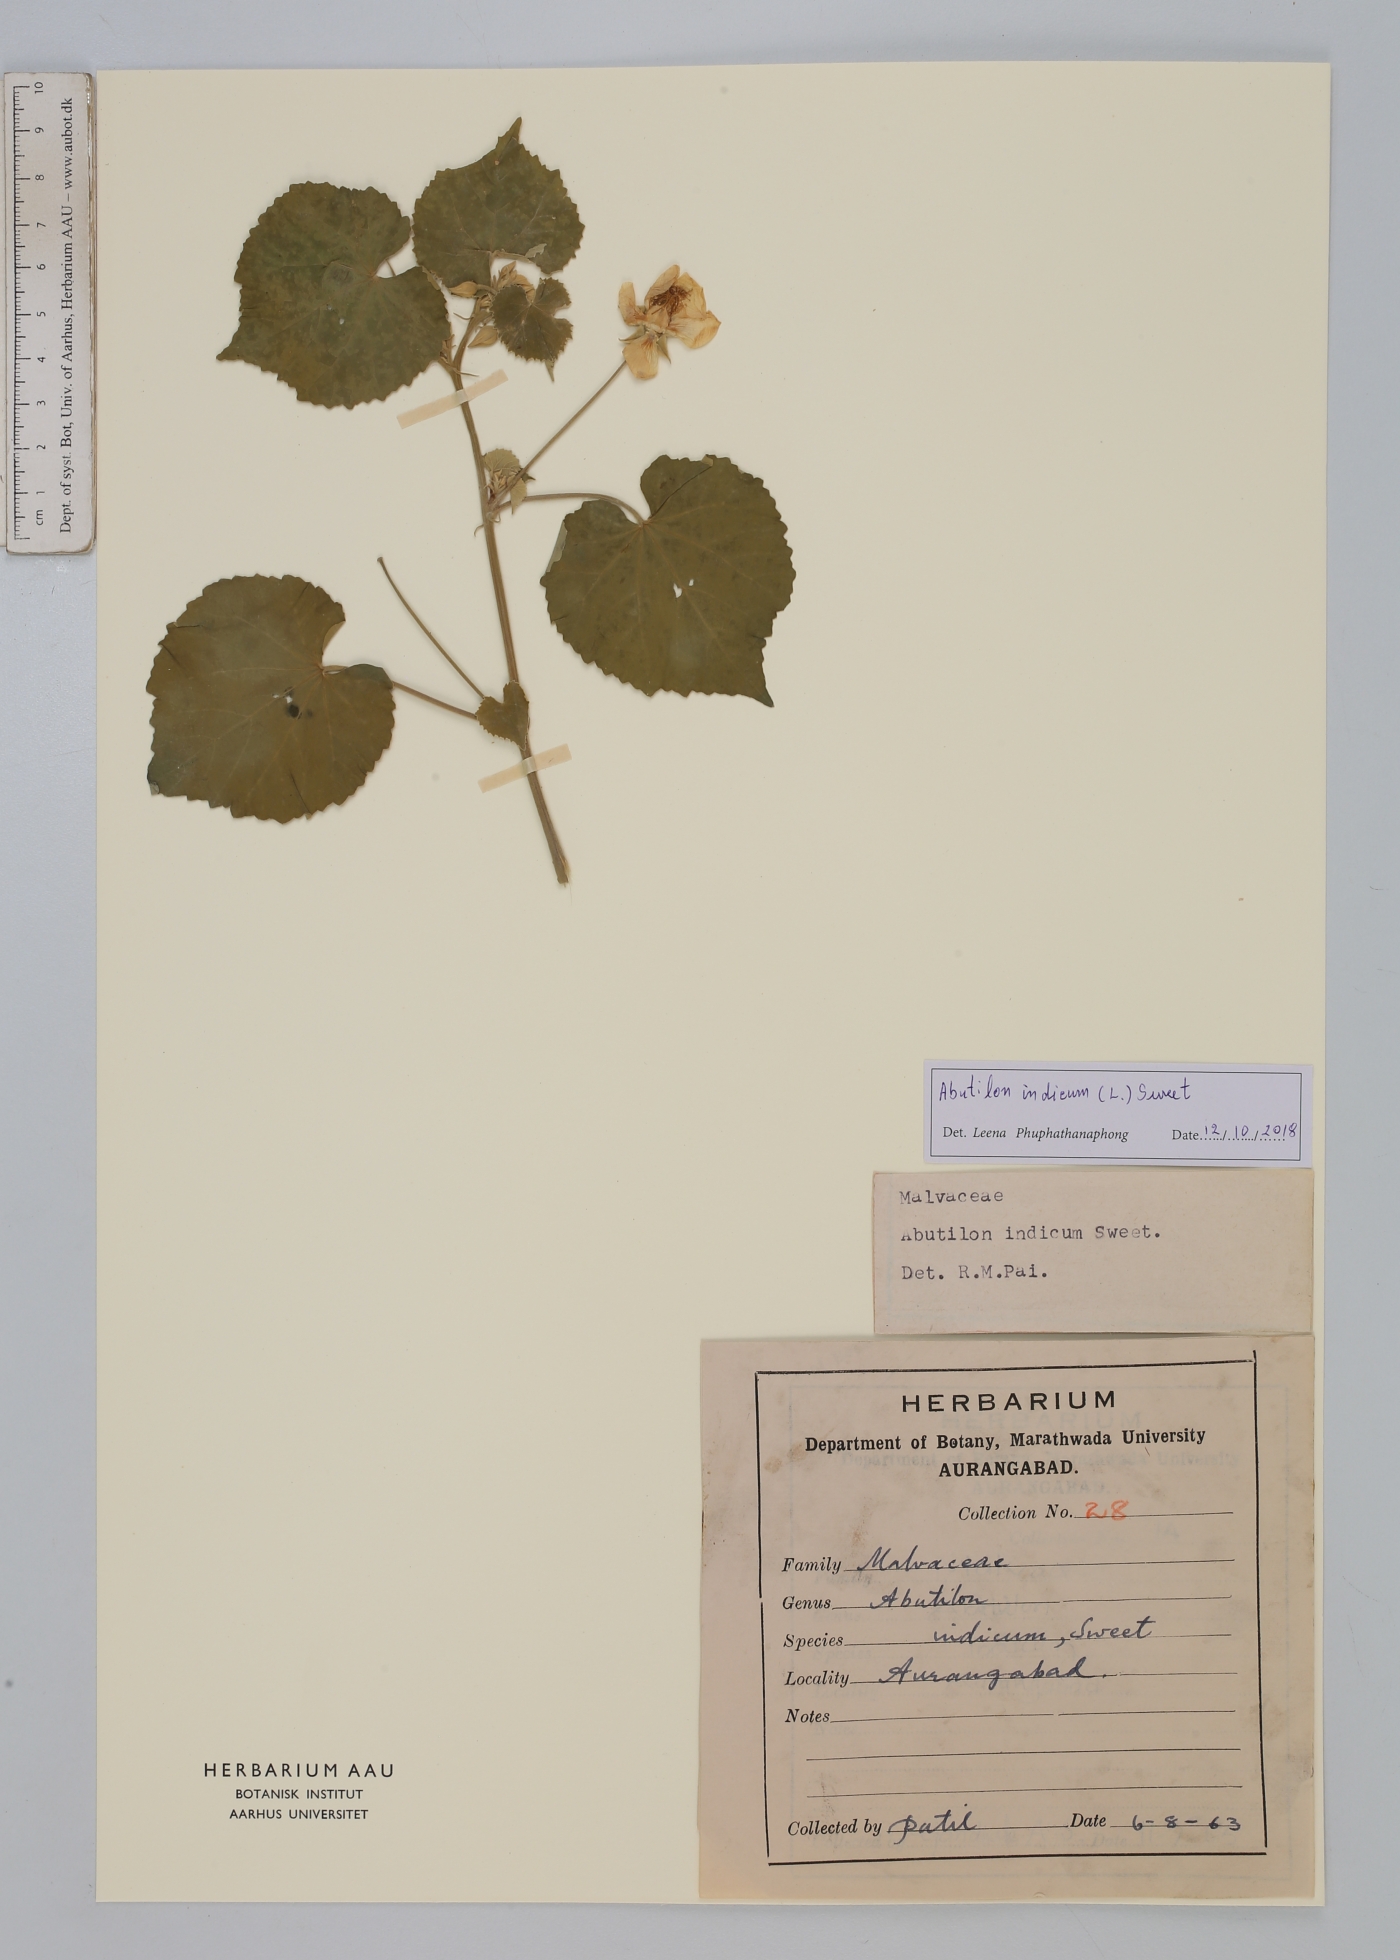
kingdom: Plantae
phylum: Tracheophyta
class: Magnoliopsida
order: Malvales
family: Malvaceae
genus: Abutilon
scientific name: Abutilon indicum
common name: Indian abutilon
